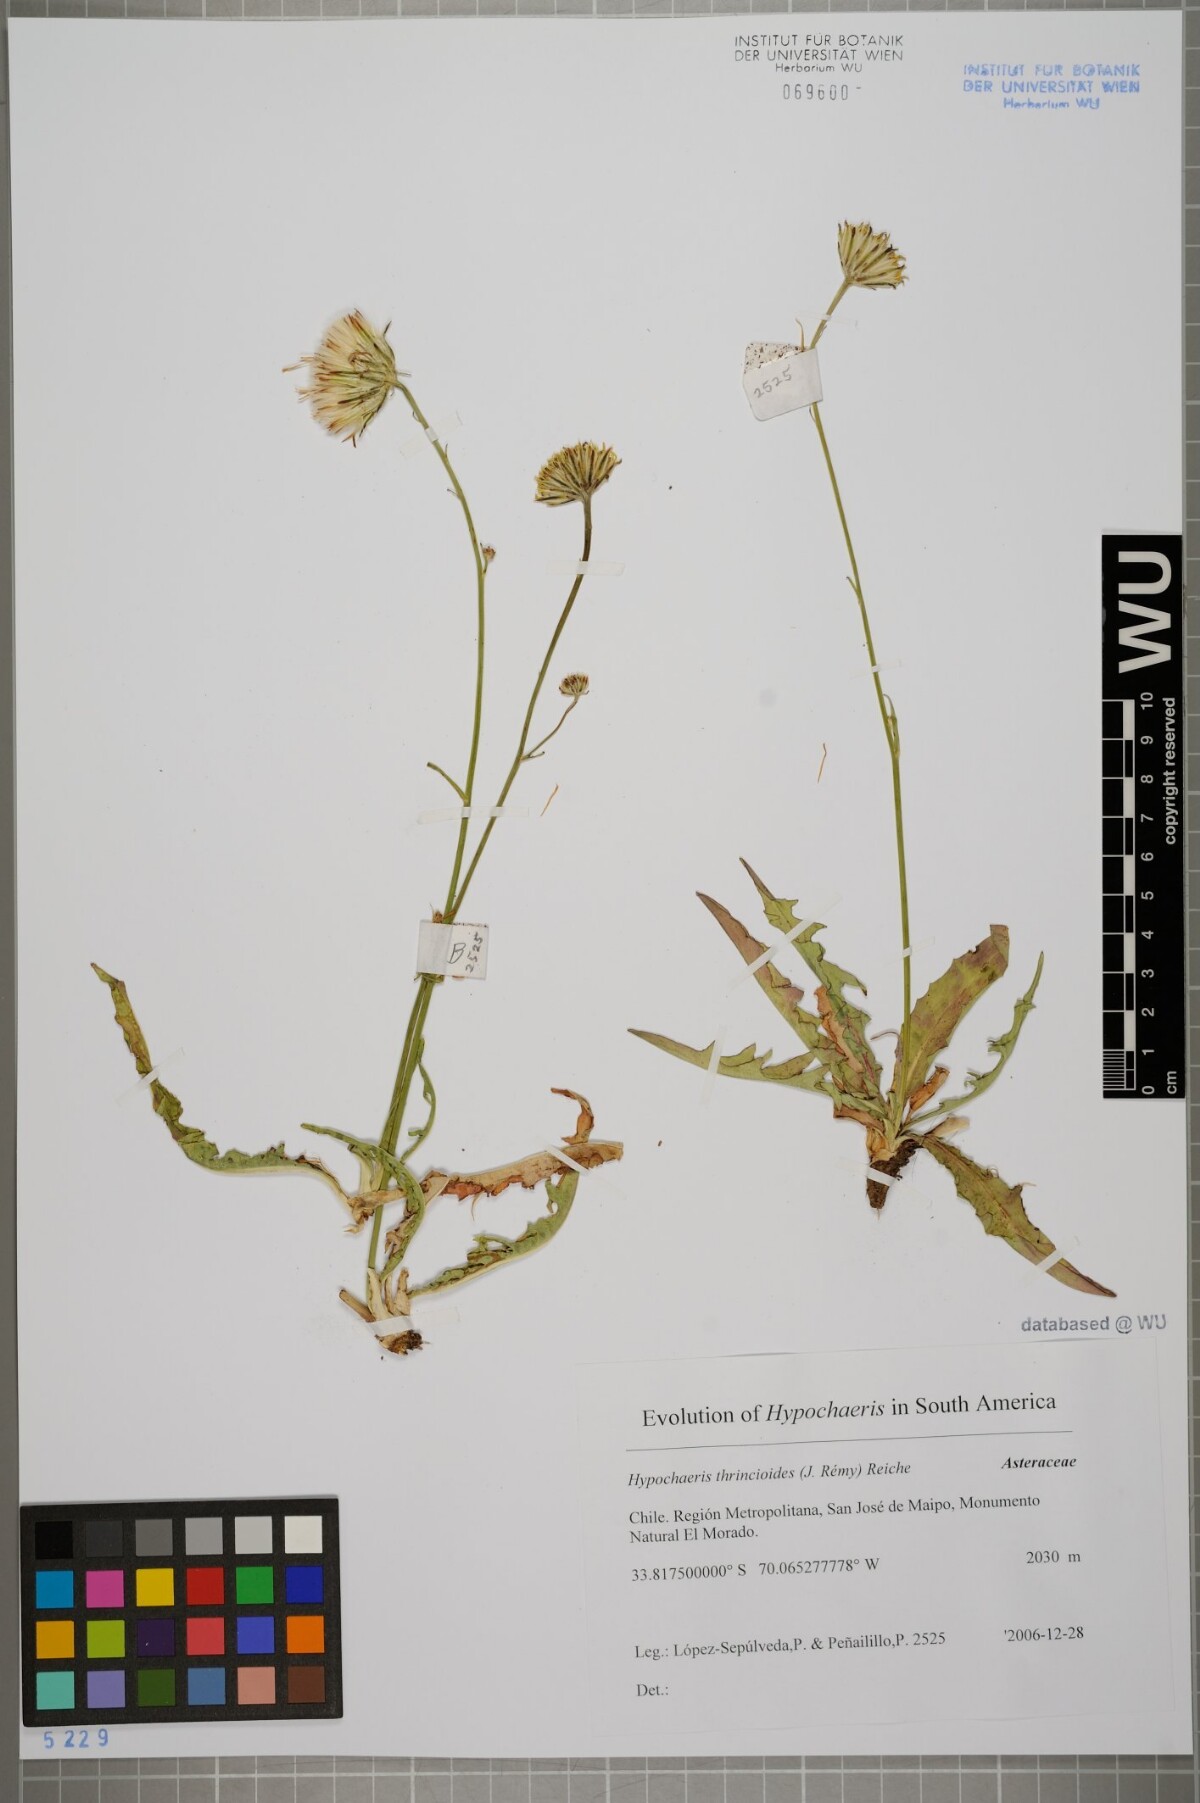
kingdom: Plantae
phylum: Tracheophyta
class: Magnoliopsida
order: Asterales
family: Asteraceae
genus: Hypochaeris
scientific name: Hypochaeris apargioides
